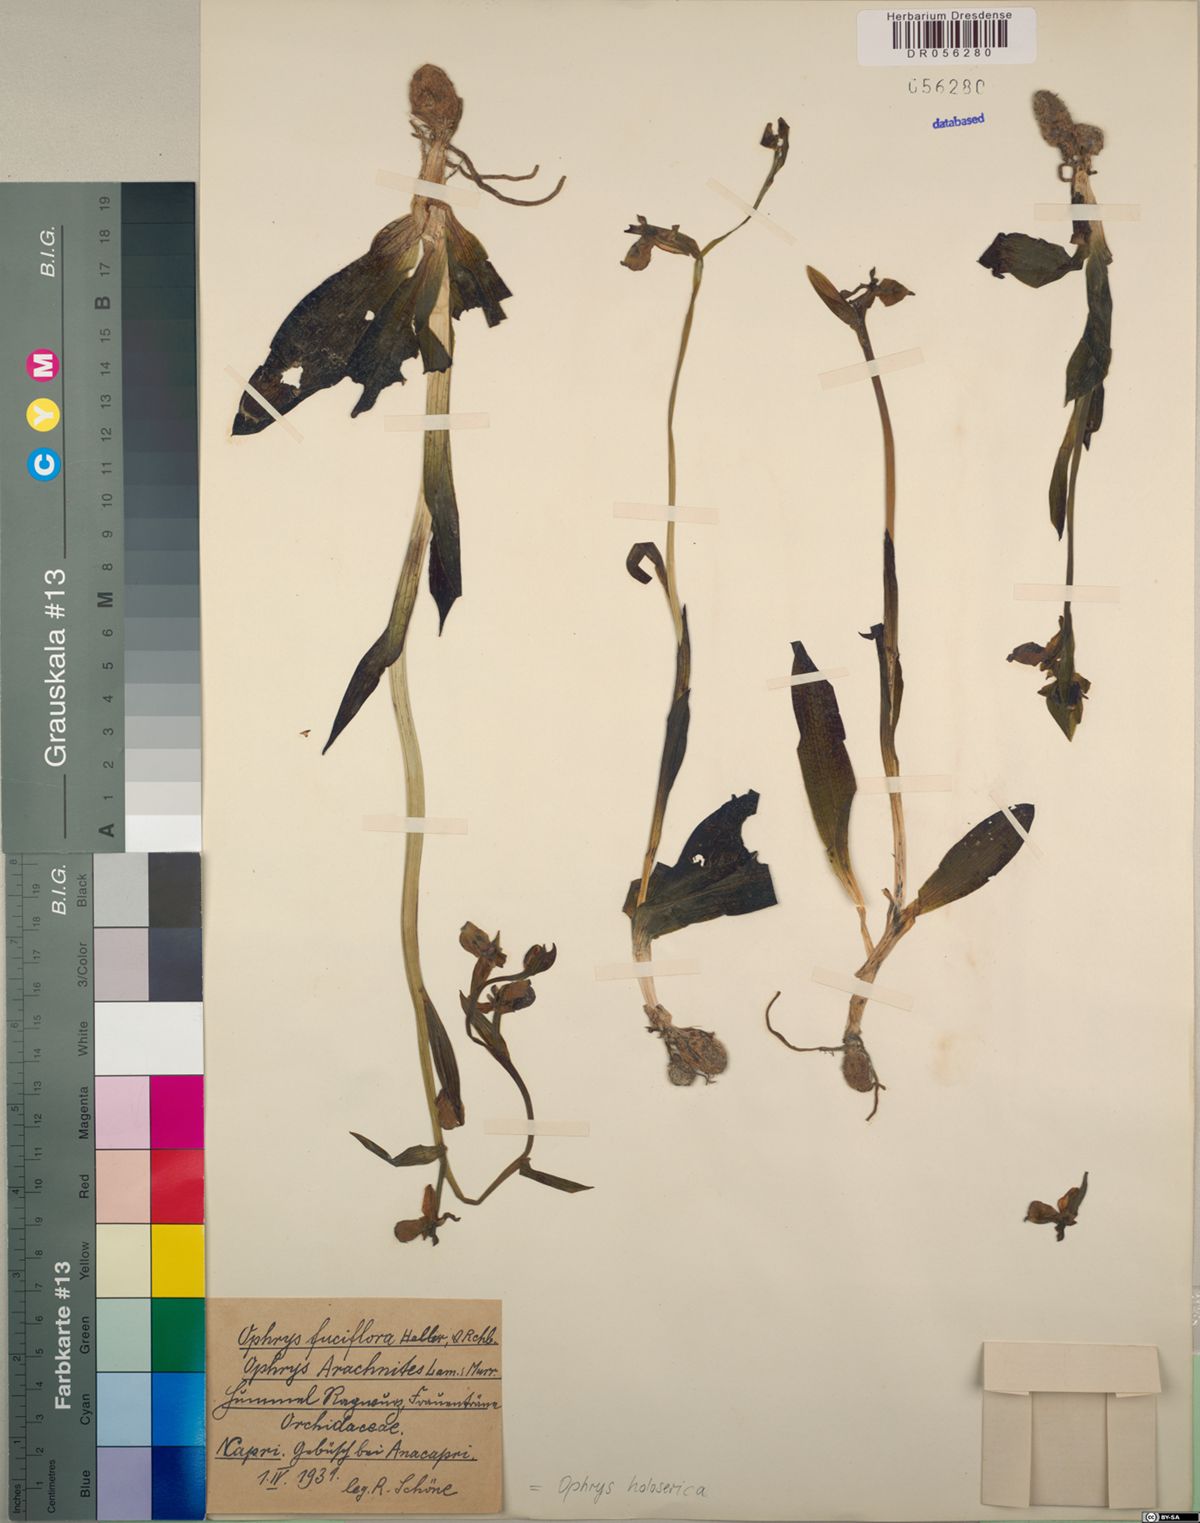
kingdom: Plantae
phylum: Tracheophyta
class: Liliopsida
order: Asparagales
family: Orchidaceae
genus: Ophrys
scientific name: Ophrys holosericea
